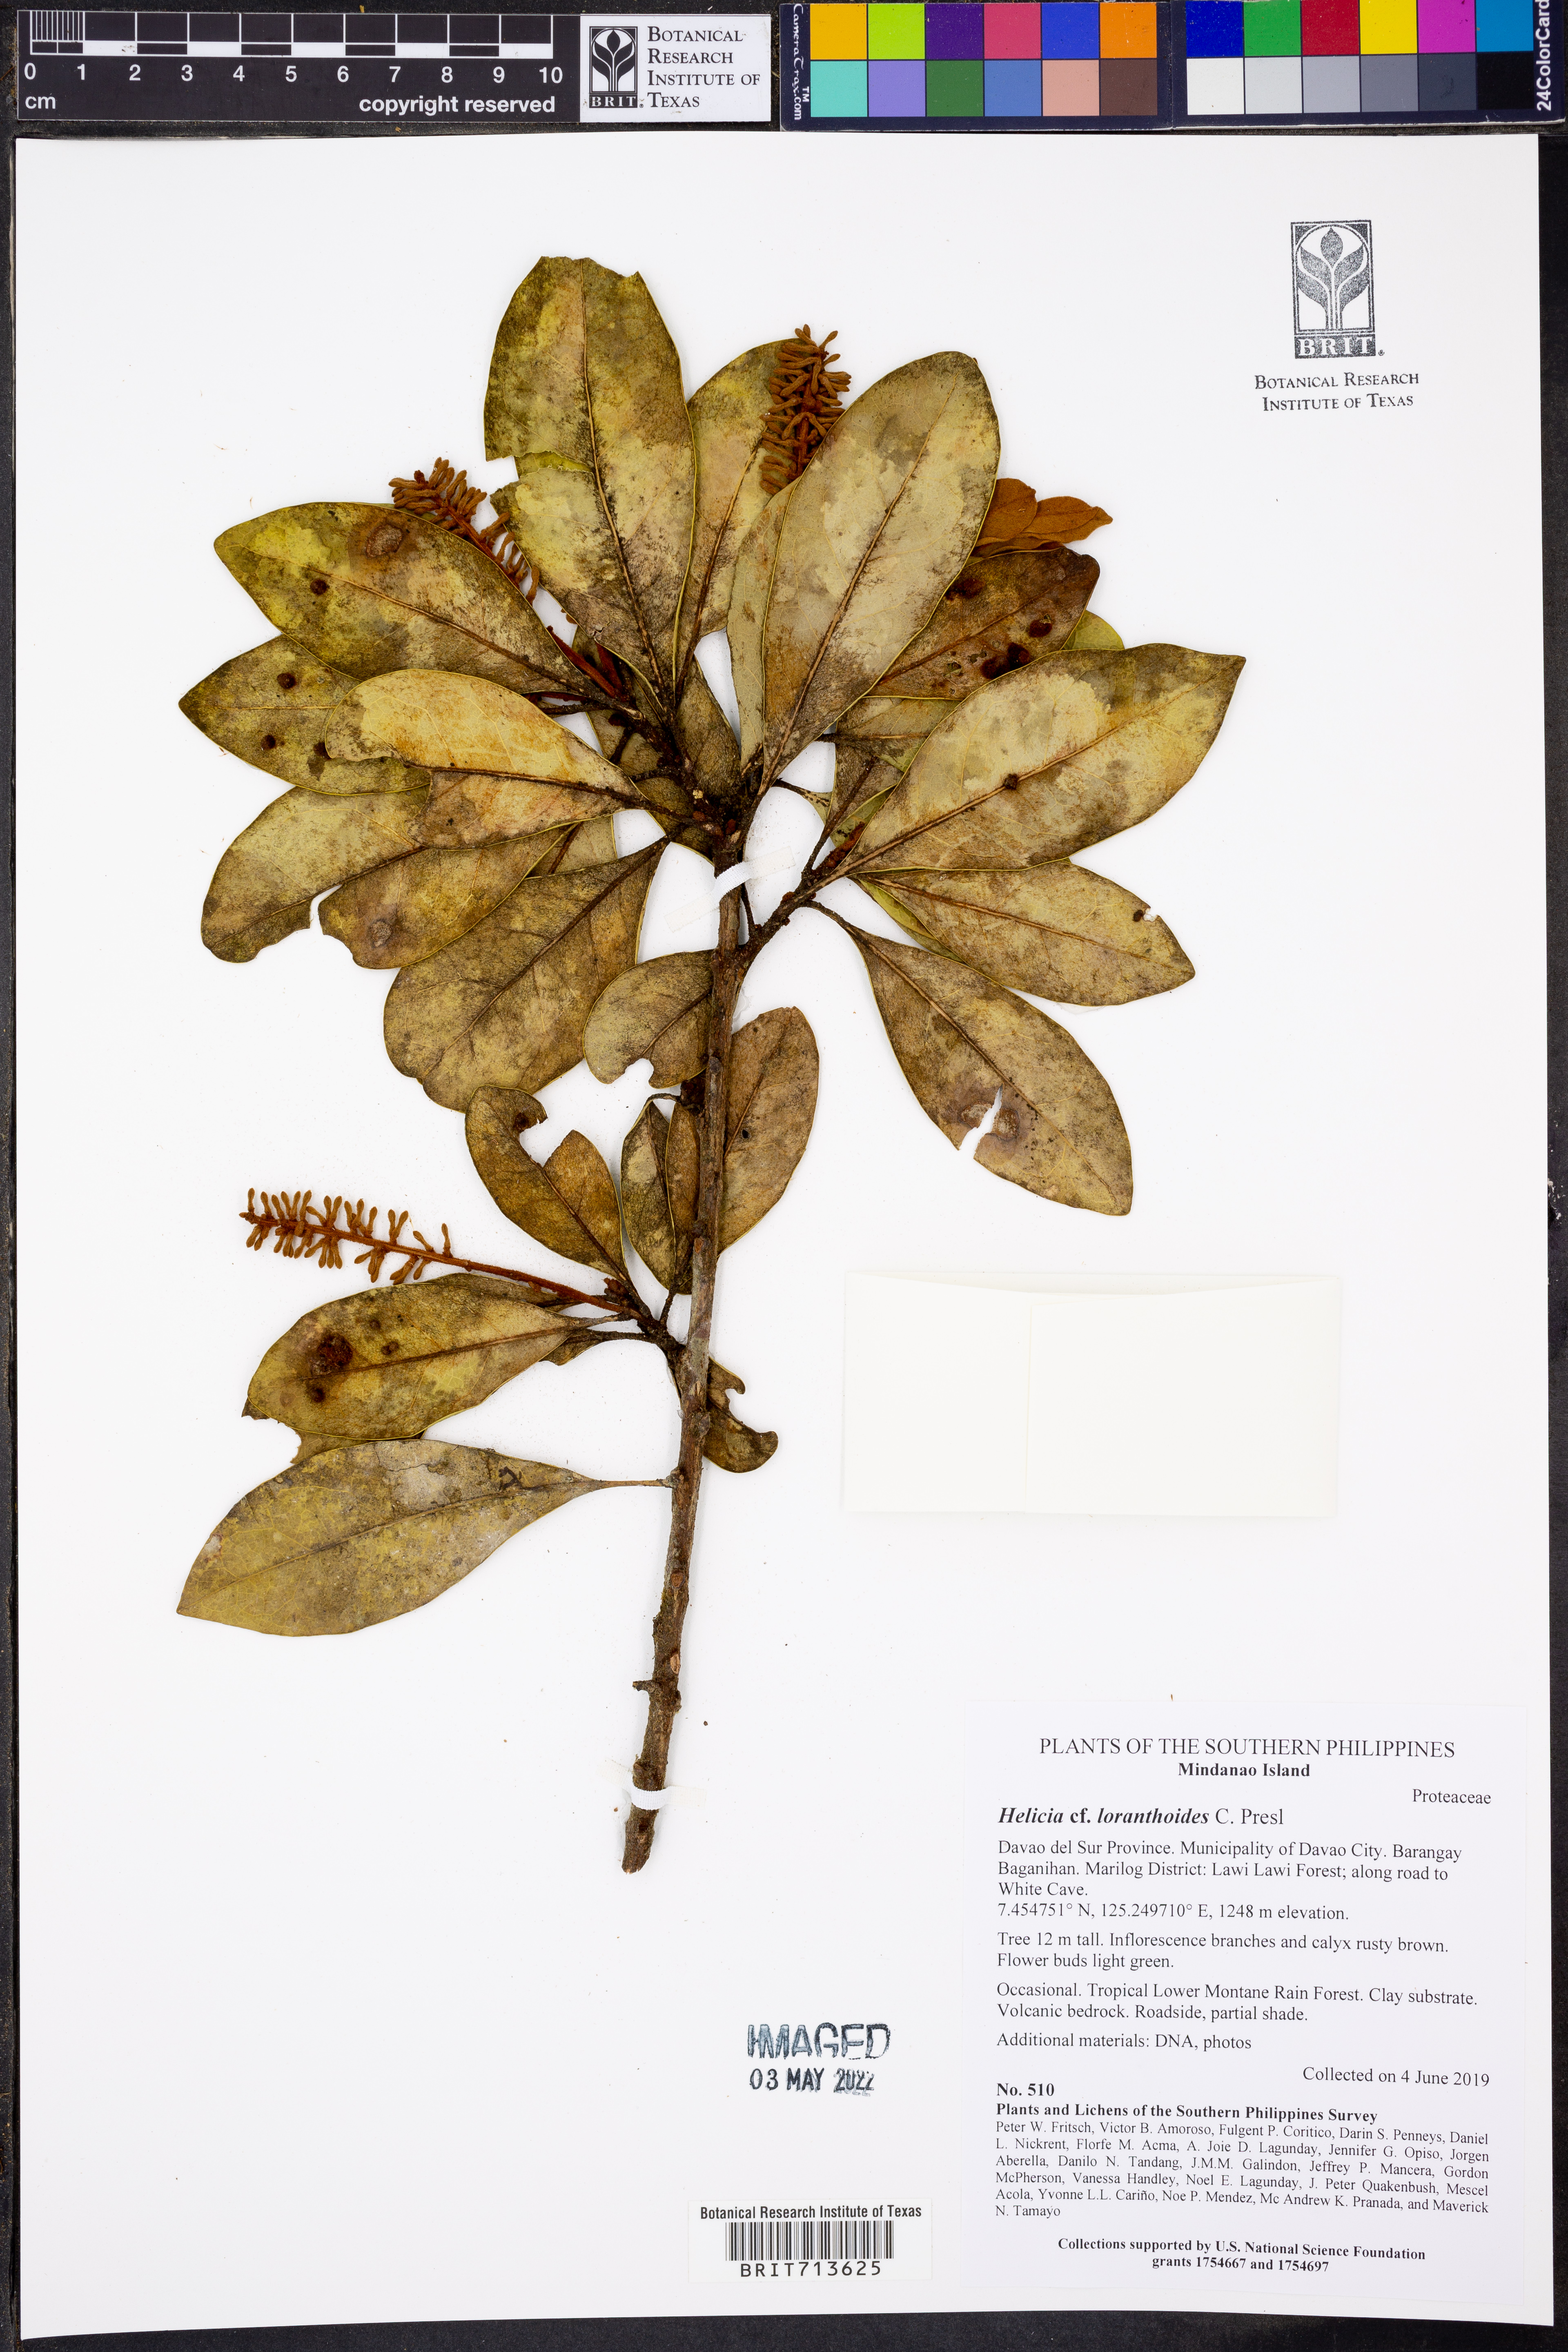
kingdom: Plantae
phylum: Tracheophyta
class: Magnoliopsida
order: Proteales
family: Proteaceae
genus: Helicia
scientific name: Helicia loranthoides
